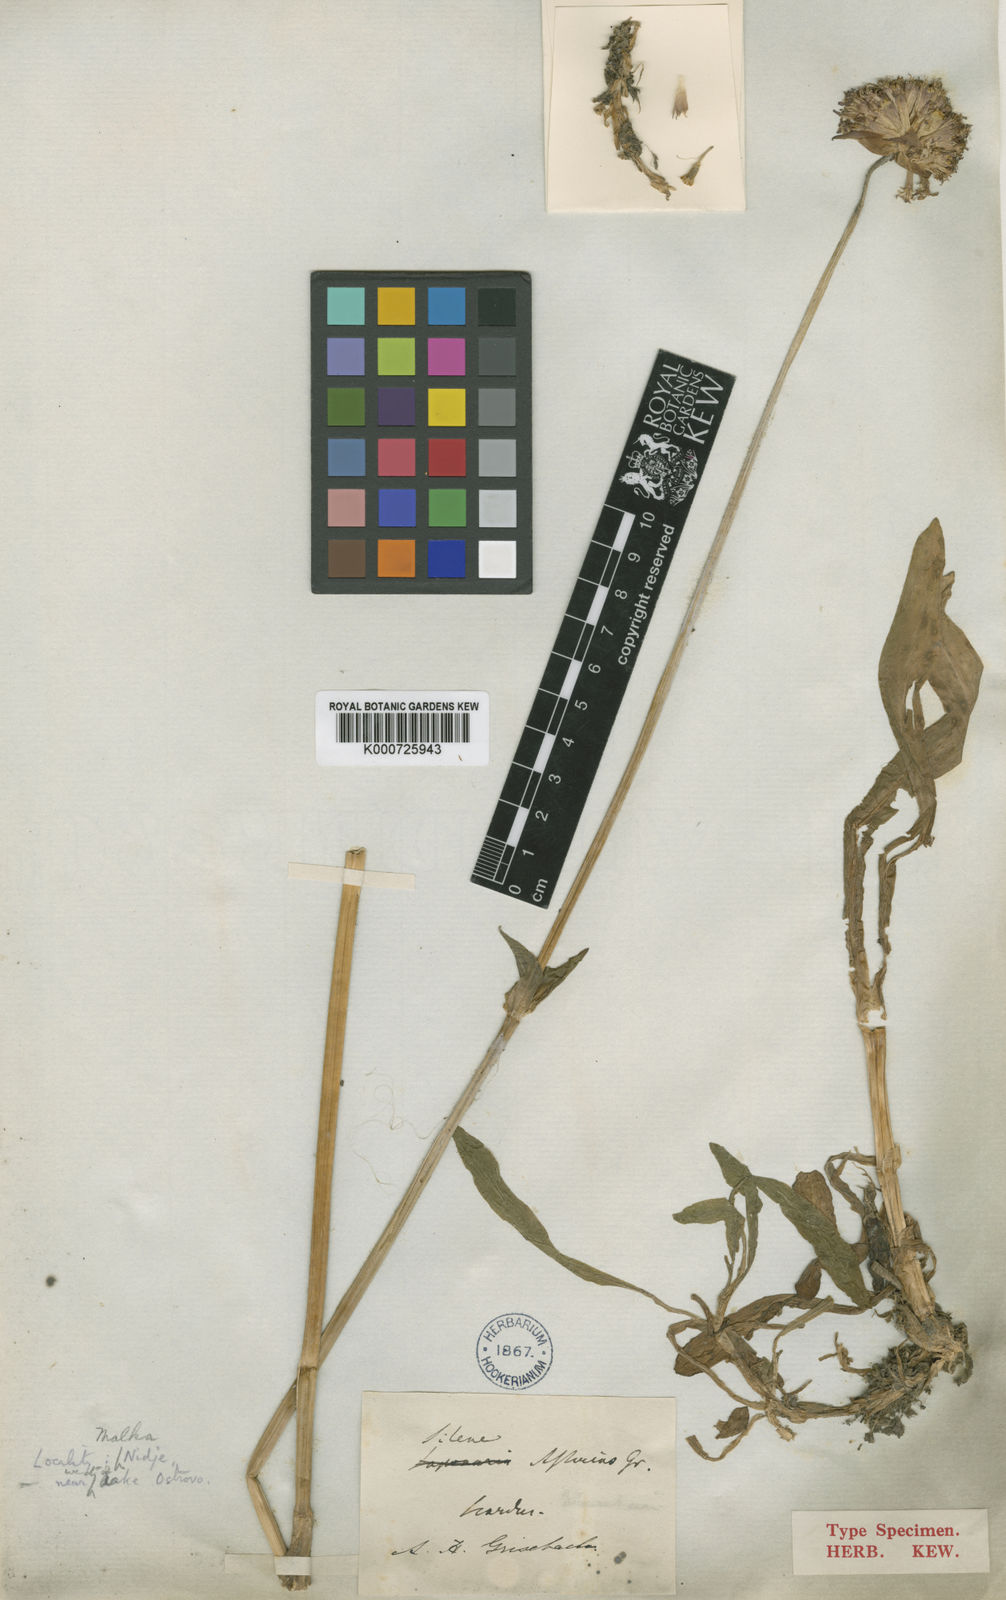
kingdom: Plantae
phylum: Tracheophyta
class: Magnoliopsida
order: Caryophyllales
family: Caryophyllaceae
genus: Viscaria
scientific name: Viscaria asterias
